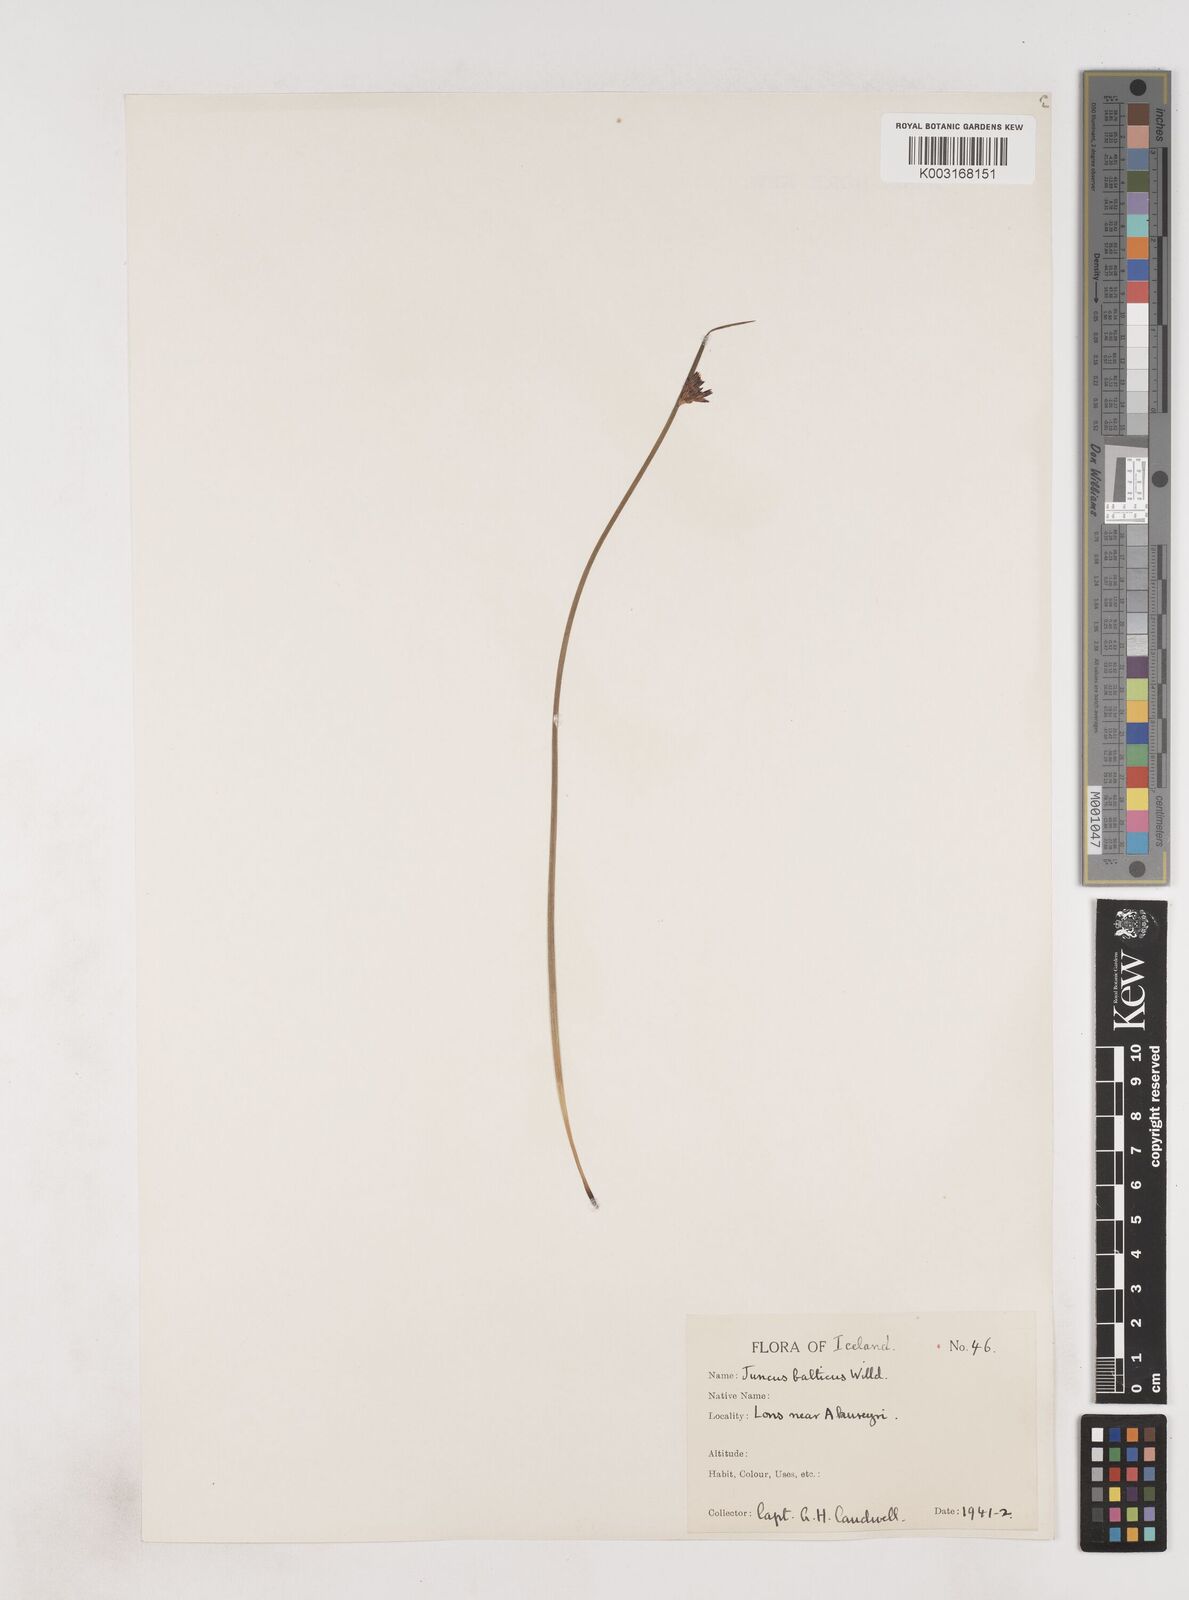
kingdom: Plantae
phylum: Tracheophyta
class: Liliopsida
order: Poales
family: Juncaceae
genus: Juncus
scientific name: Juncus balticus
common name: Baltic rush
